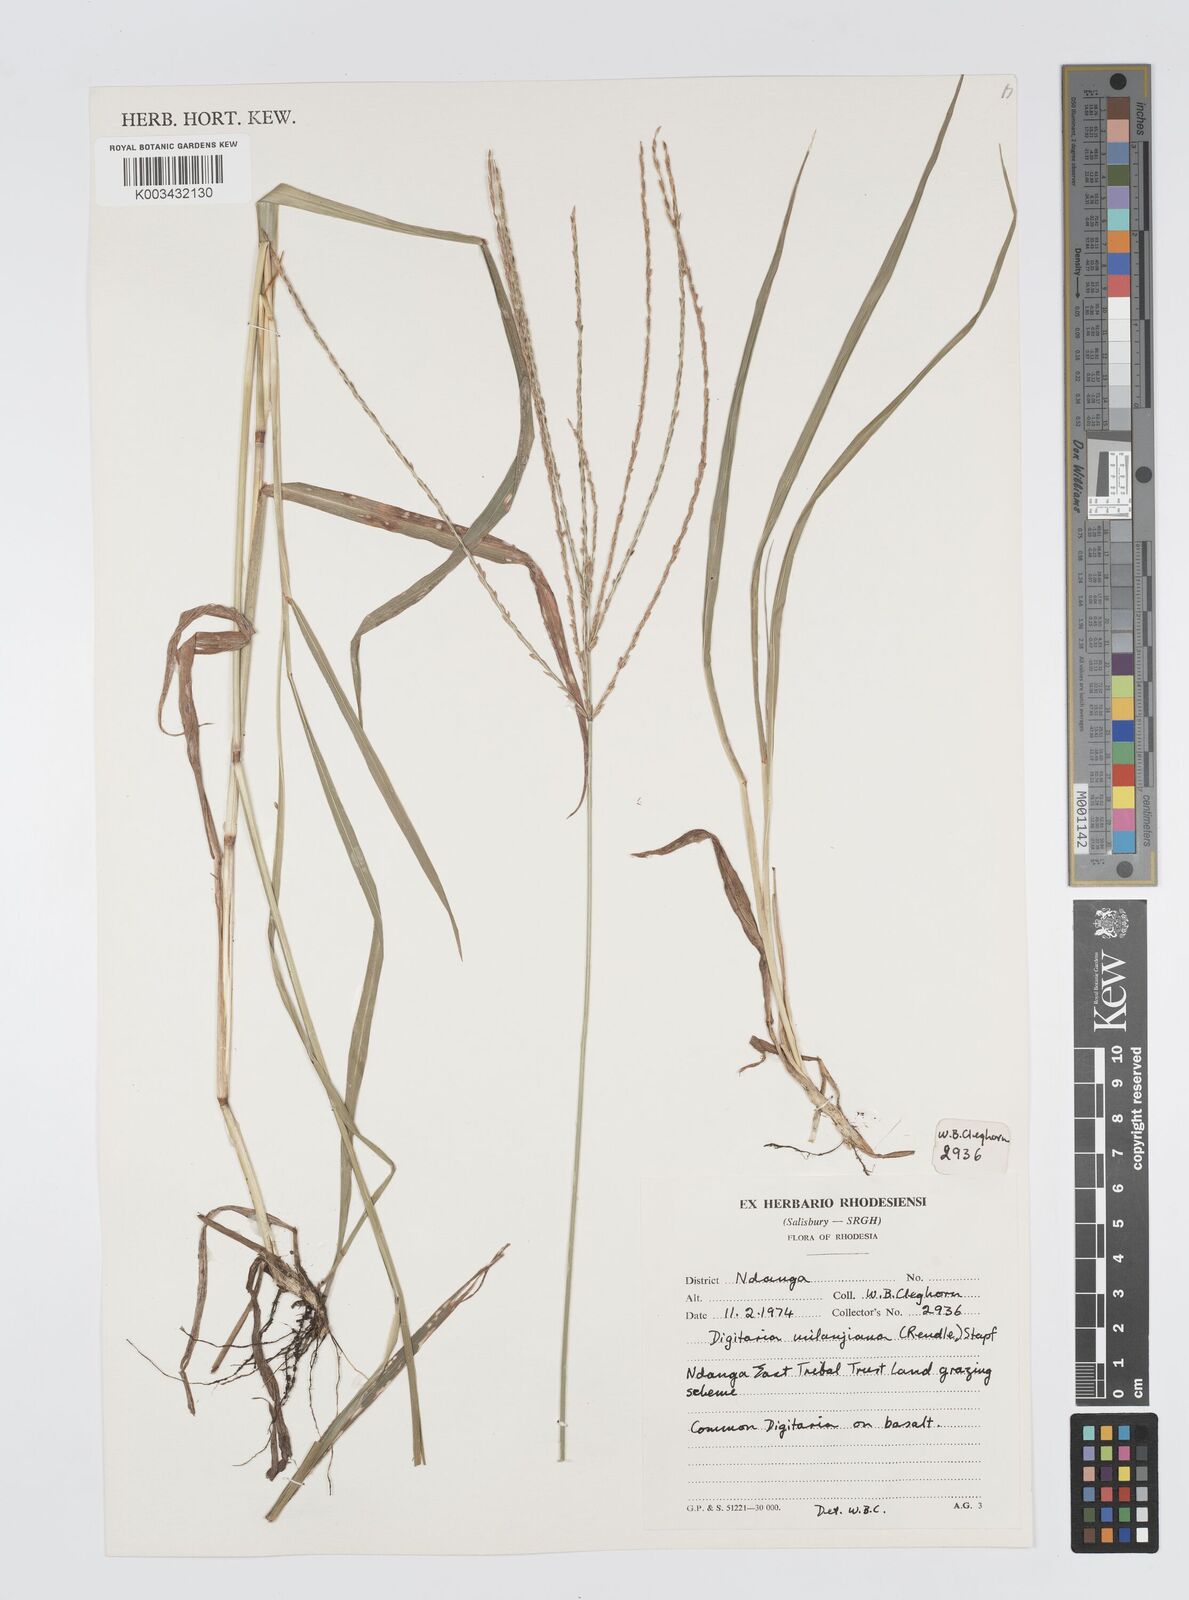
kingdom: Plantae
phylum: Tracheophyta
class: Liliopsida
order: Poales
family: Poaceae
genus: Digitaria
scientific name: Digitaria milanjiana
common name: Madagascar crabgrass
